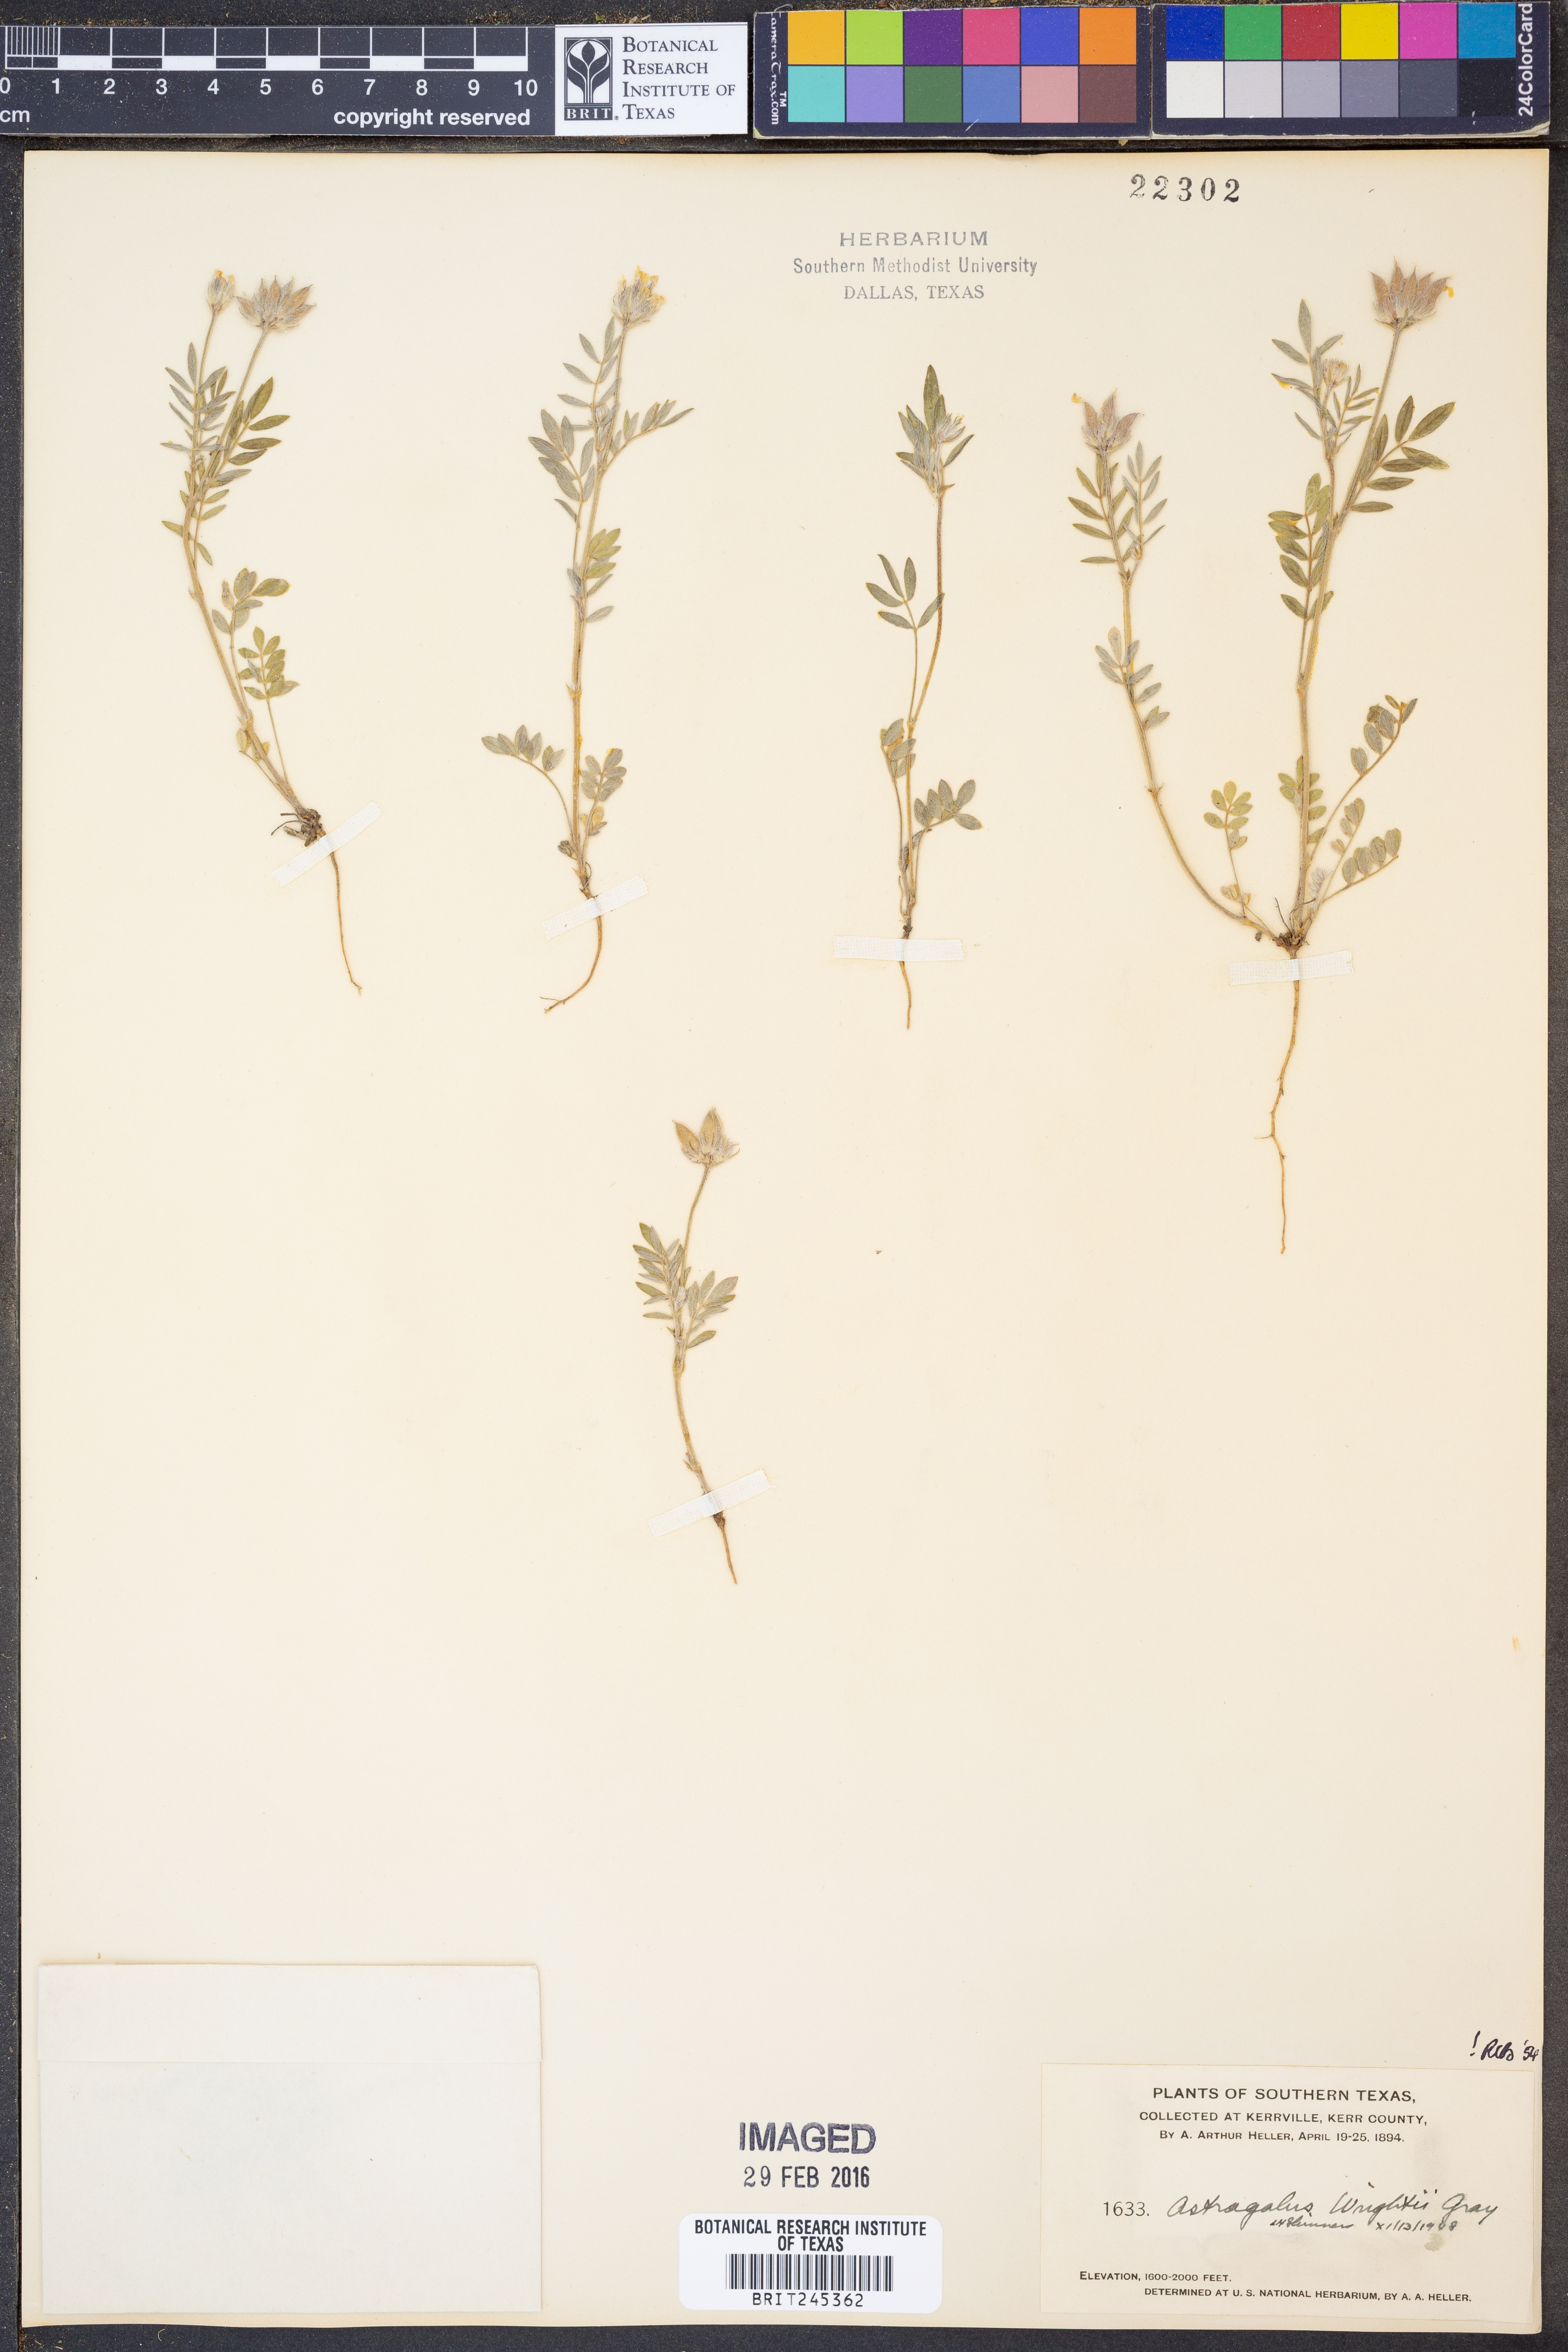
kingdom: Plantae
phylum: Tracheophyta
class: Magnoliopsida
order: Fabales
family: Fabaceae
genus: Astragalus
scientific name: Astragalus wrightii
